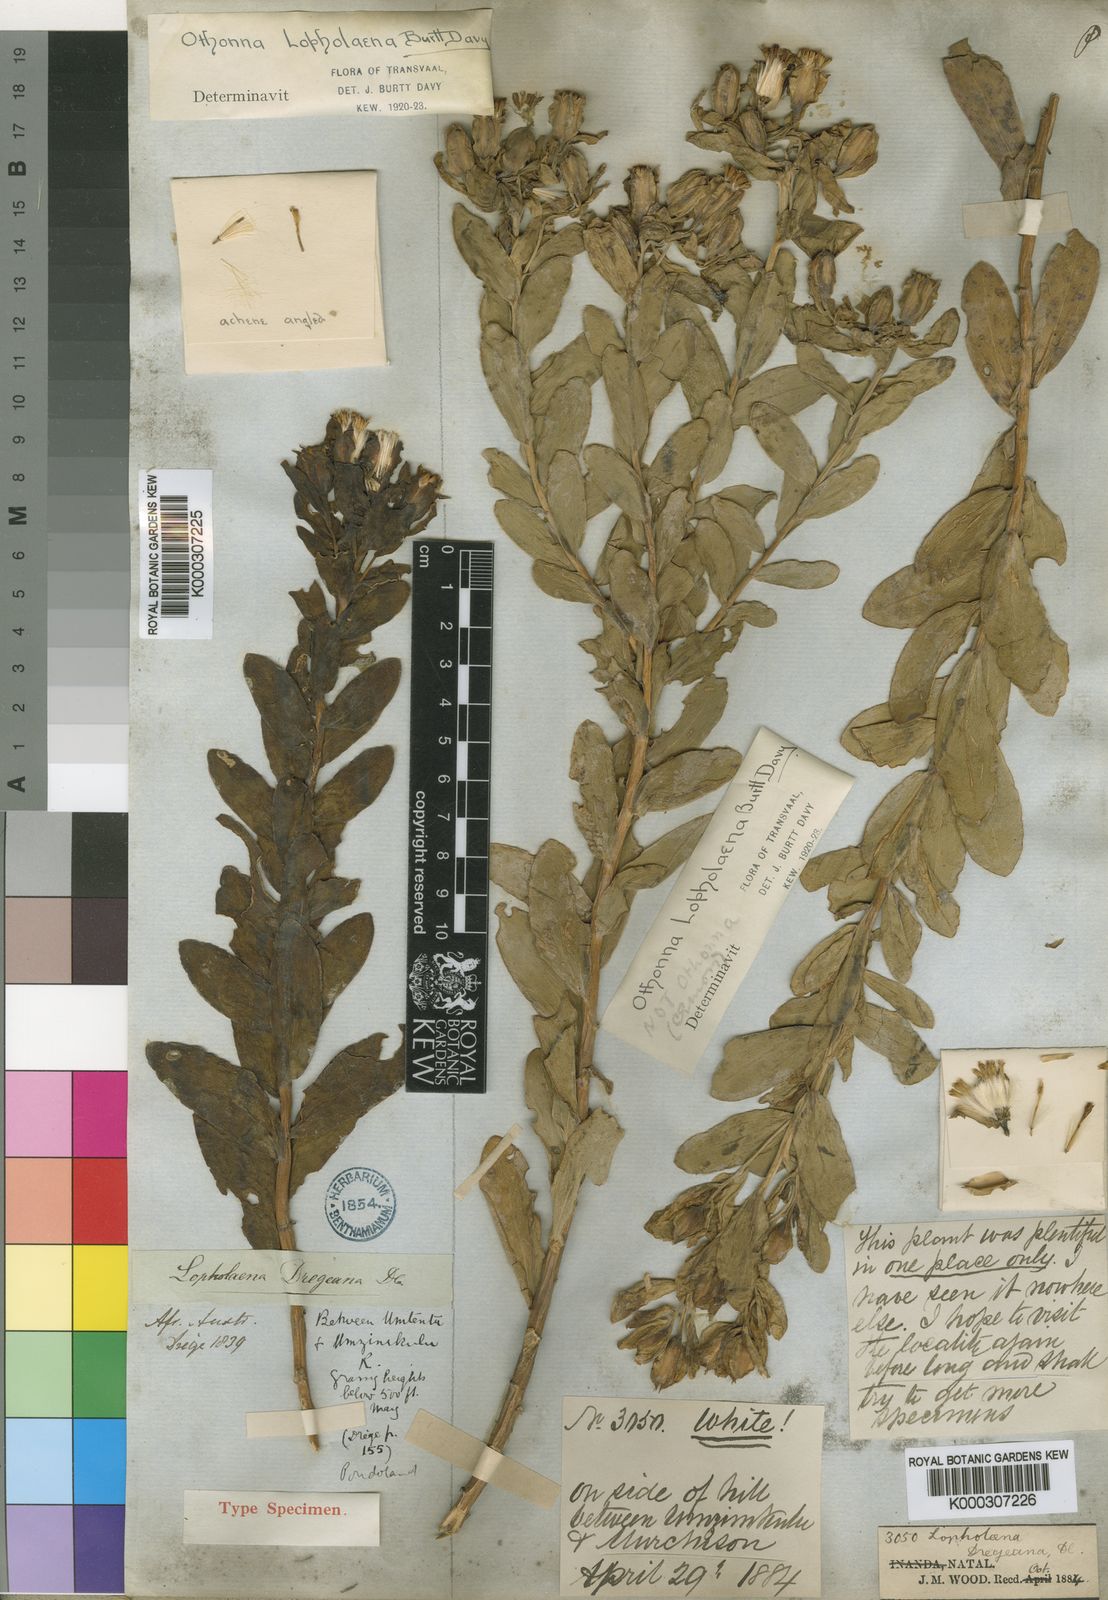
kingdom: Plantae
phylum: Tracheophyta
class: Magnoliopsida
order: Asterales
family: Asteraceae
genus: Lopholaena
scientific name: Lopholaena dregeana
